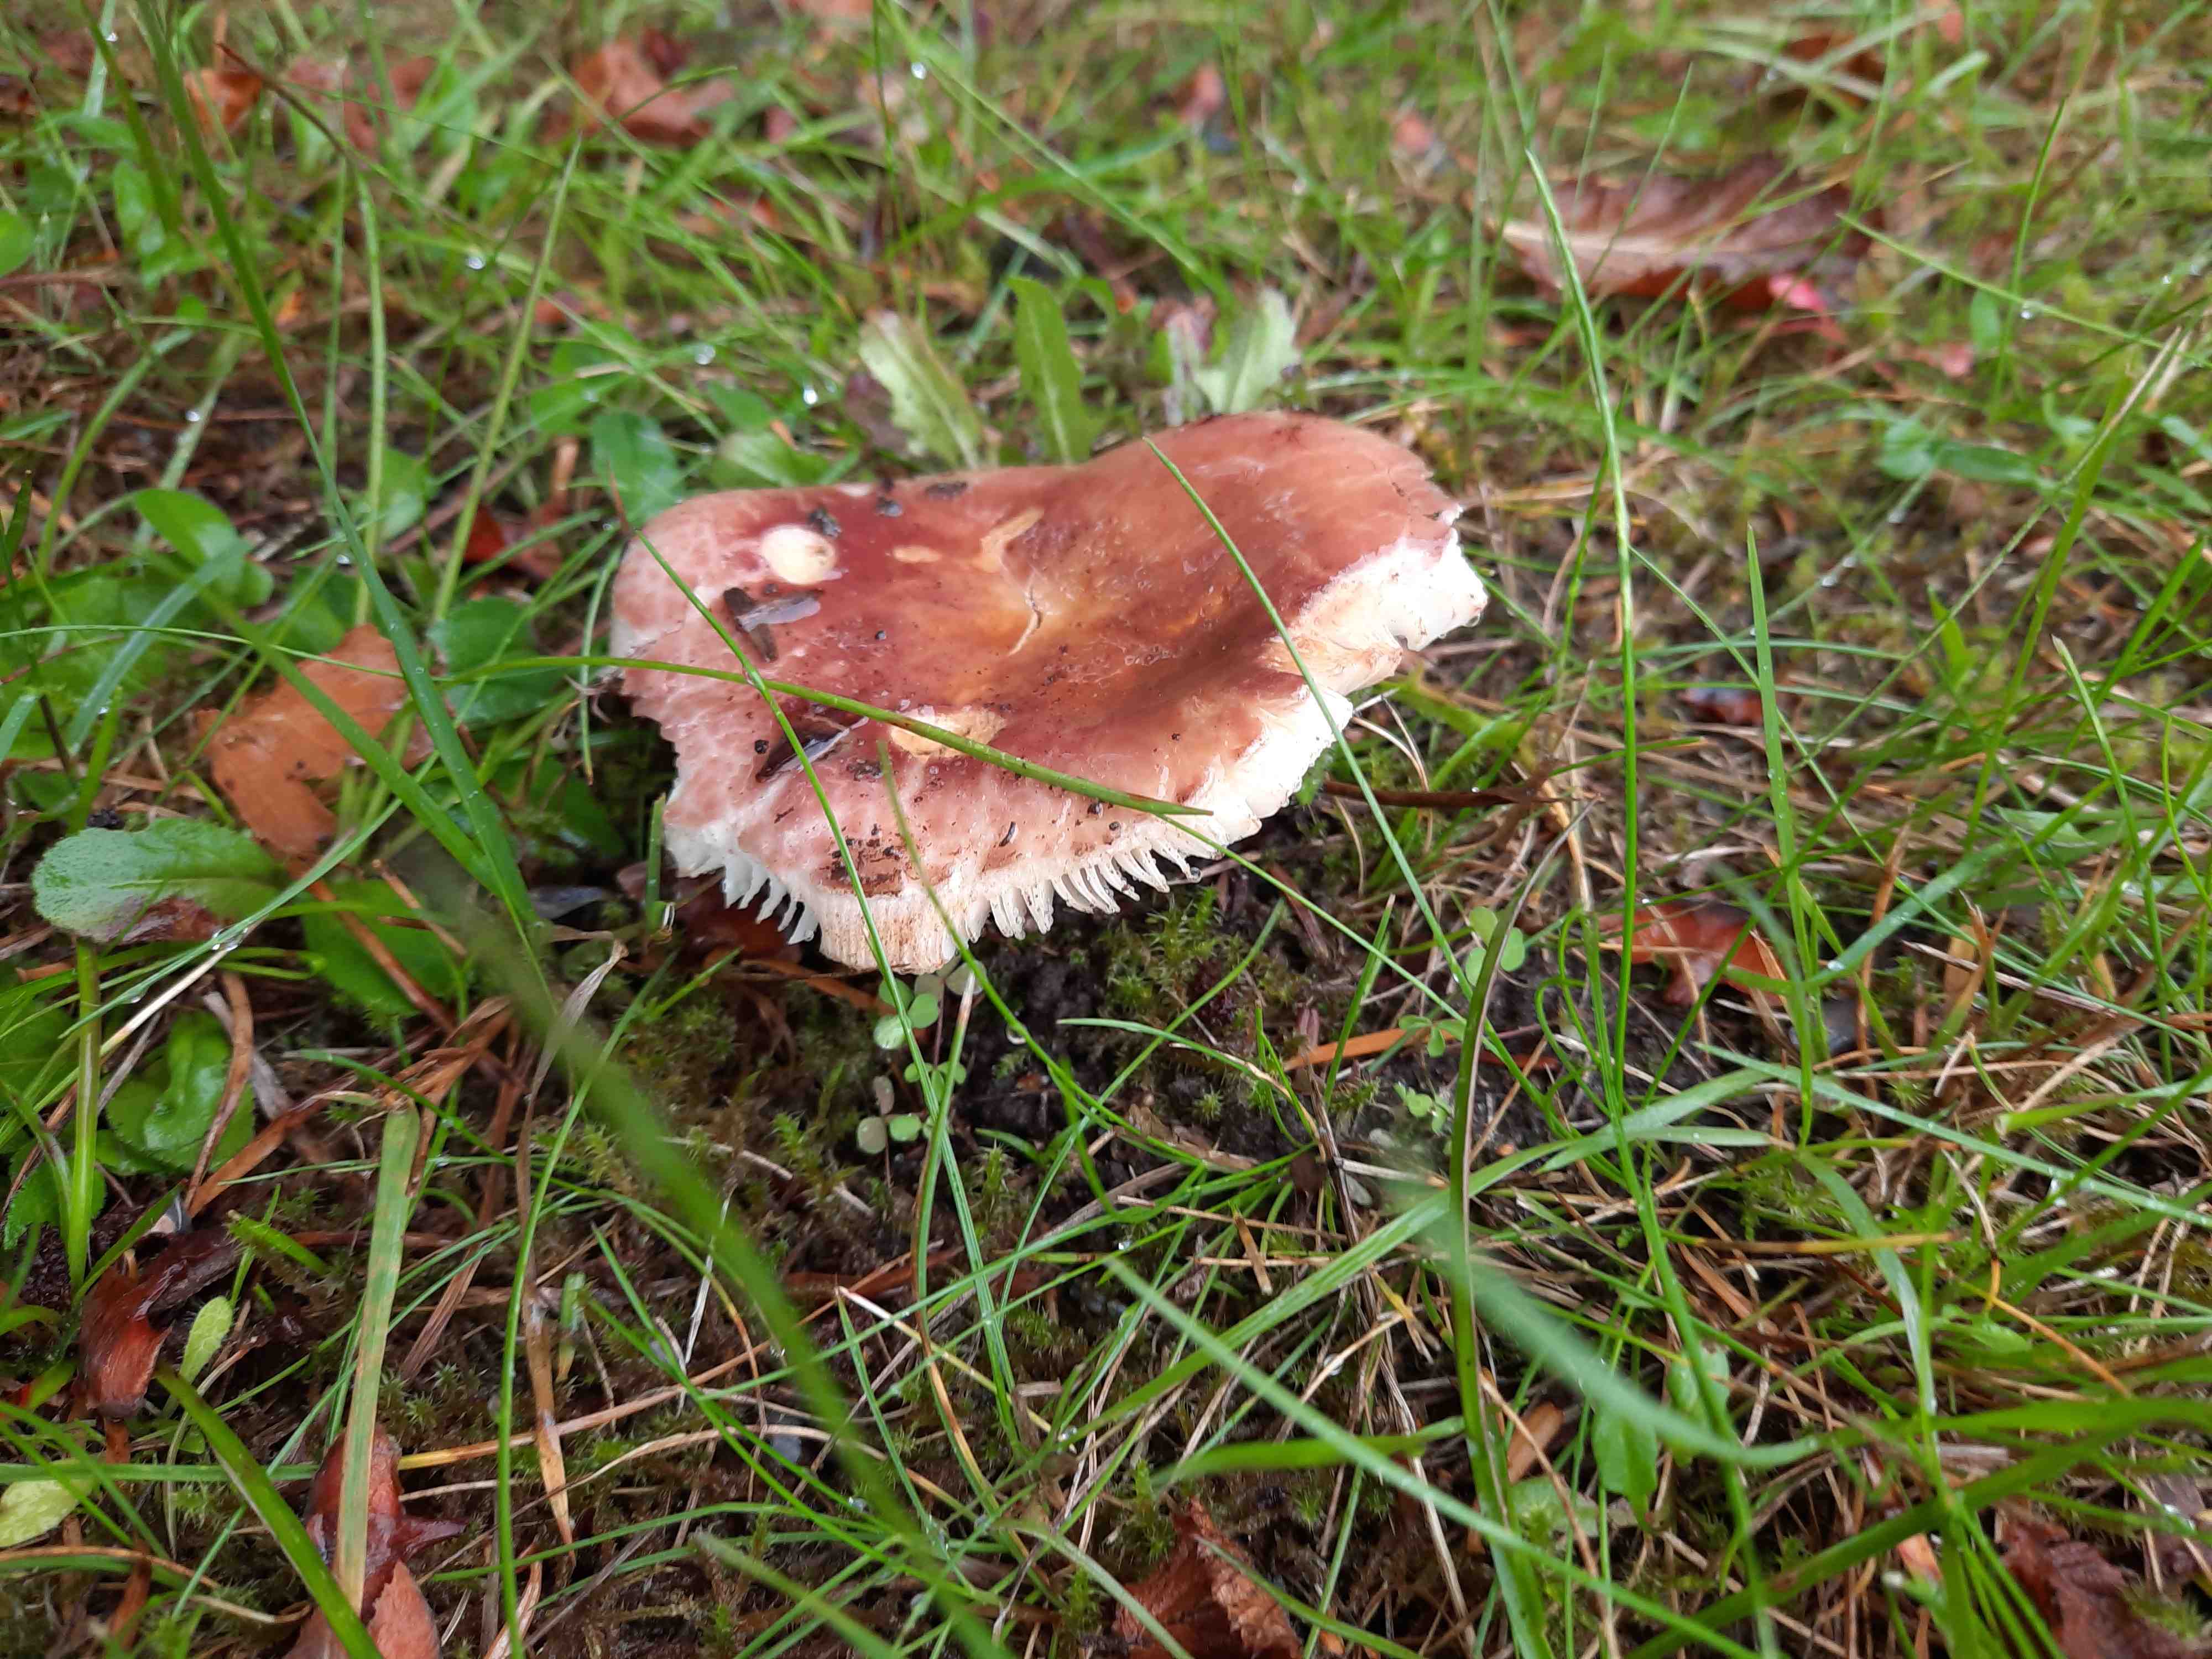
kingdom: Fungi
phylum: Basidiomycota
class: Agaricomycetes
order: Russulales
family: Russulaceae
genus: Russula
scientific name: Russula vesca
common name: spiselig skørhat
